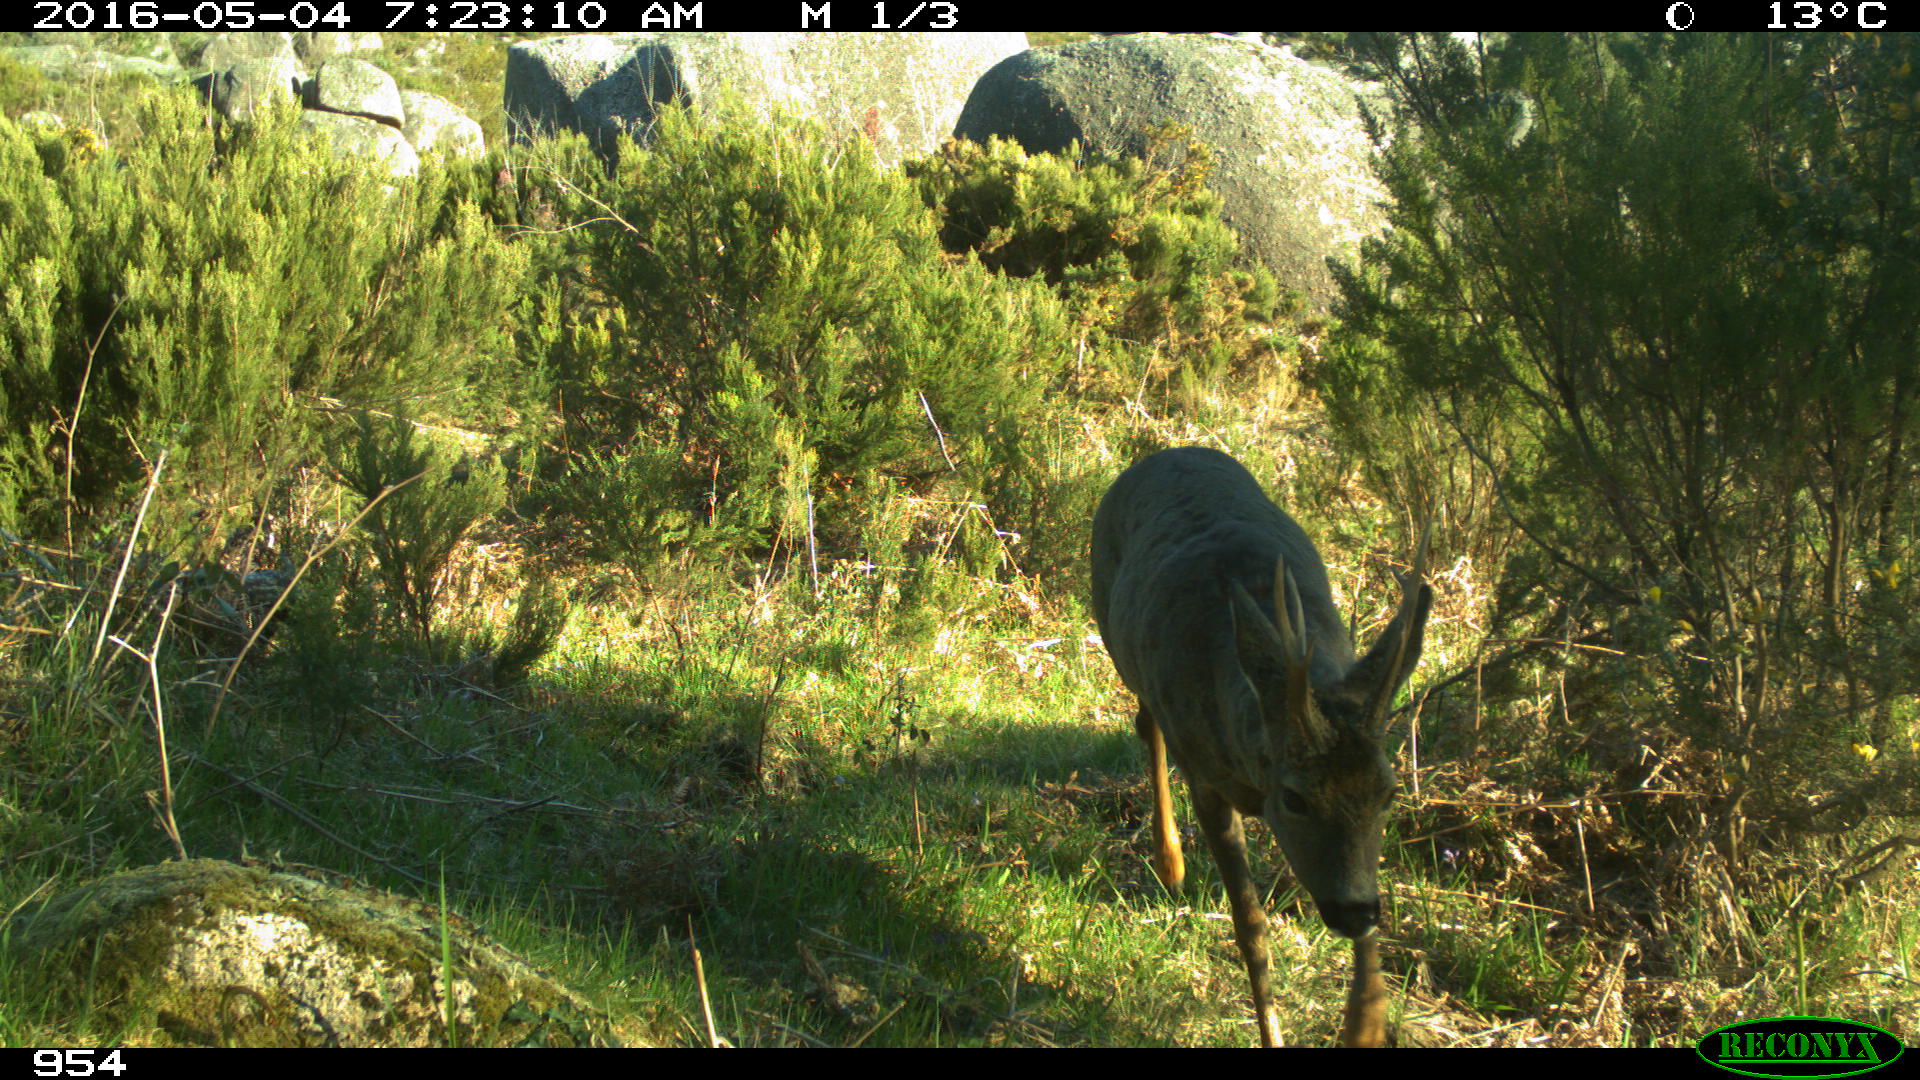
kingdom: Animalia
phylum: Chordata
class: Mammalia
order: Artiodactyla
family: Cervidae
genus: Capreolus
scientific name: Capreolus capreolus
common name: Western roe deer
